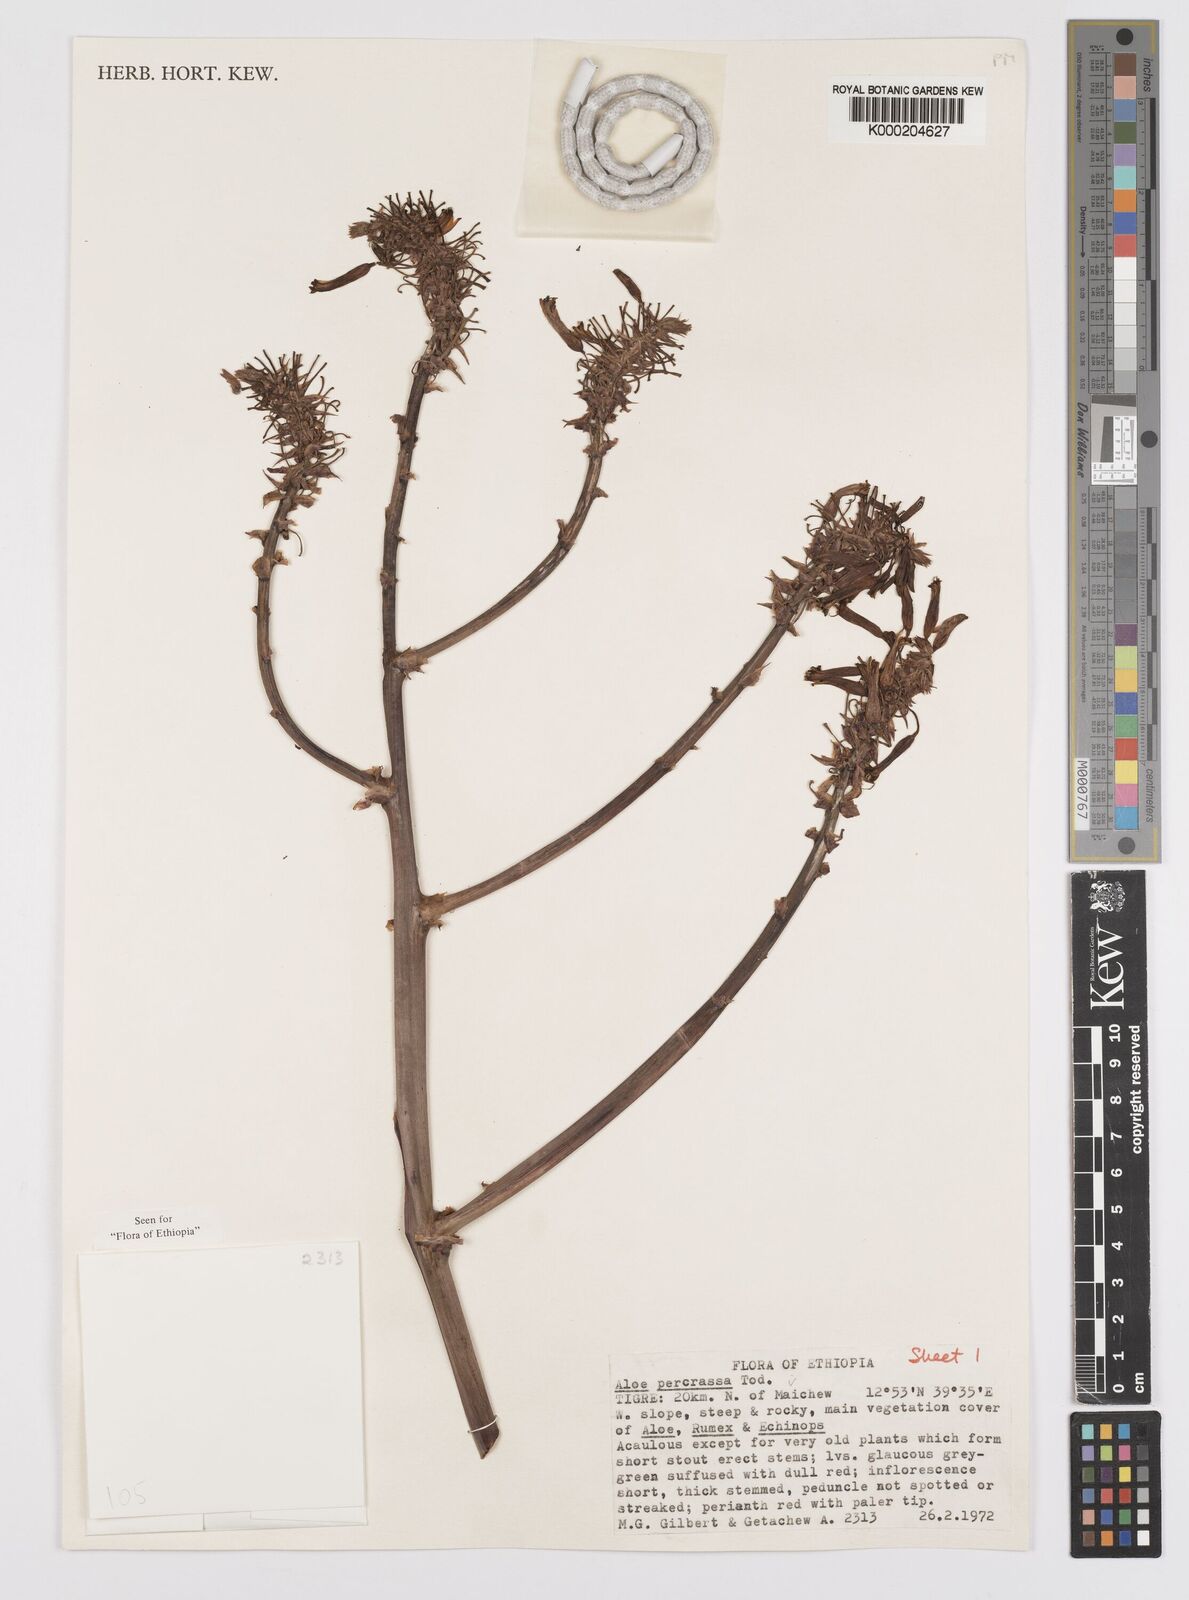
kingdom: Plantae
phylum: Tracheophyta
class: Liliopsida
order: Asparagales
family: Asphodelaceae
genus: Aloe
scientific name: Aloe percrassa
